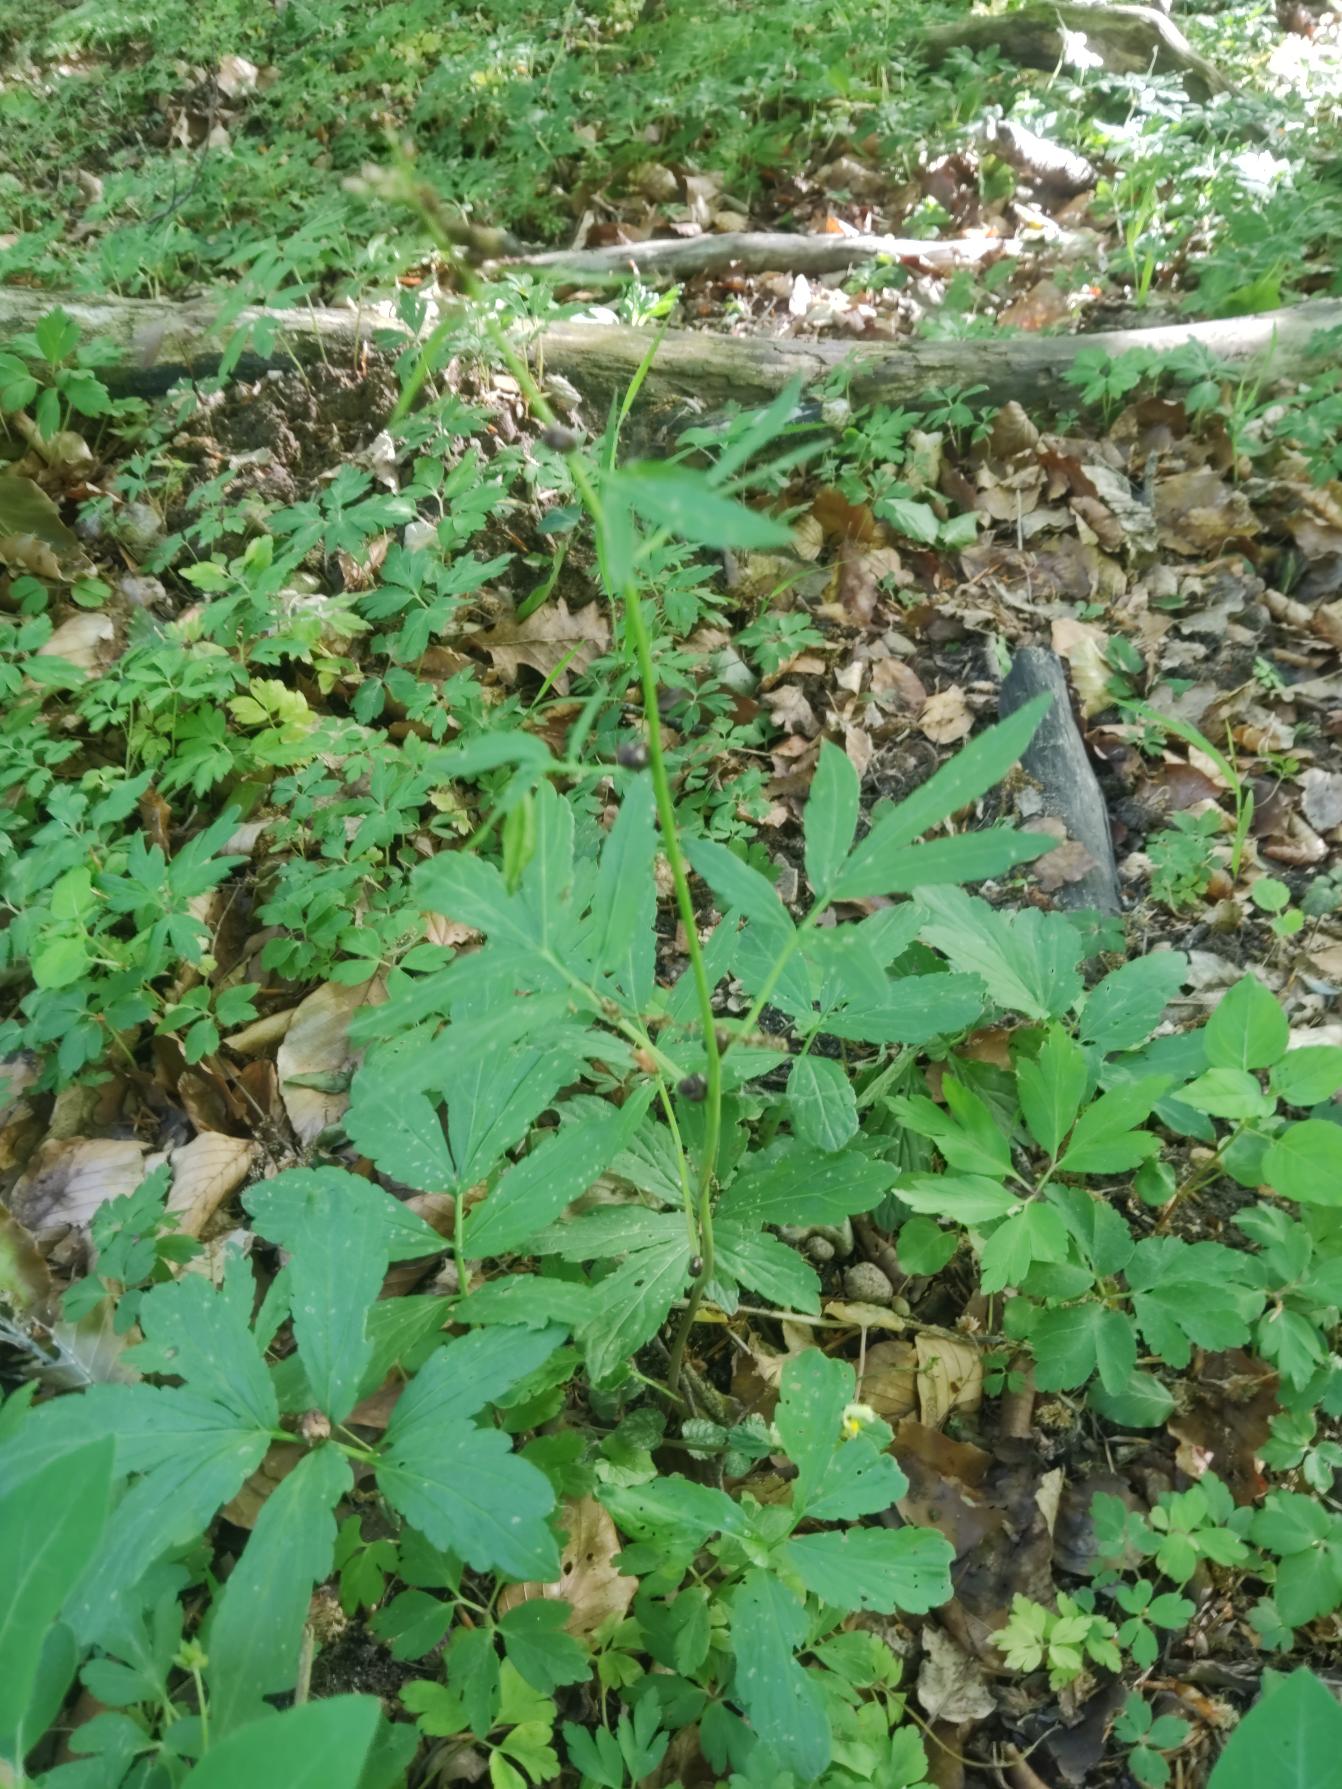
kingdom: Plantae
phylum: Tracheophyta
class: Magnoliopsida
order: Brassicales
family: Brassicaceae
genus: Cardamine
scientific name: Cardamine bulbifera
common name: Tandrod
